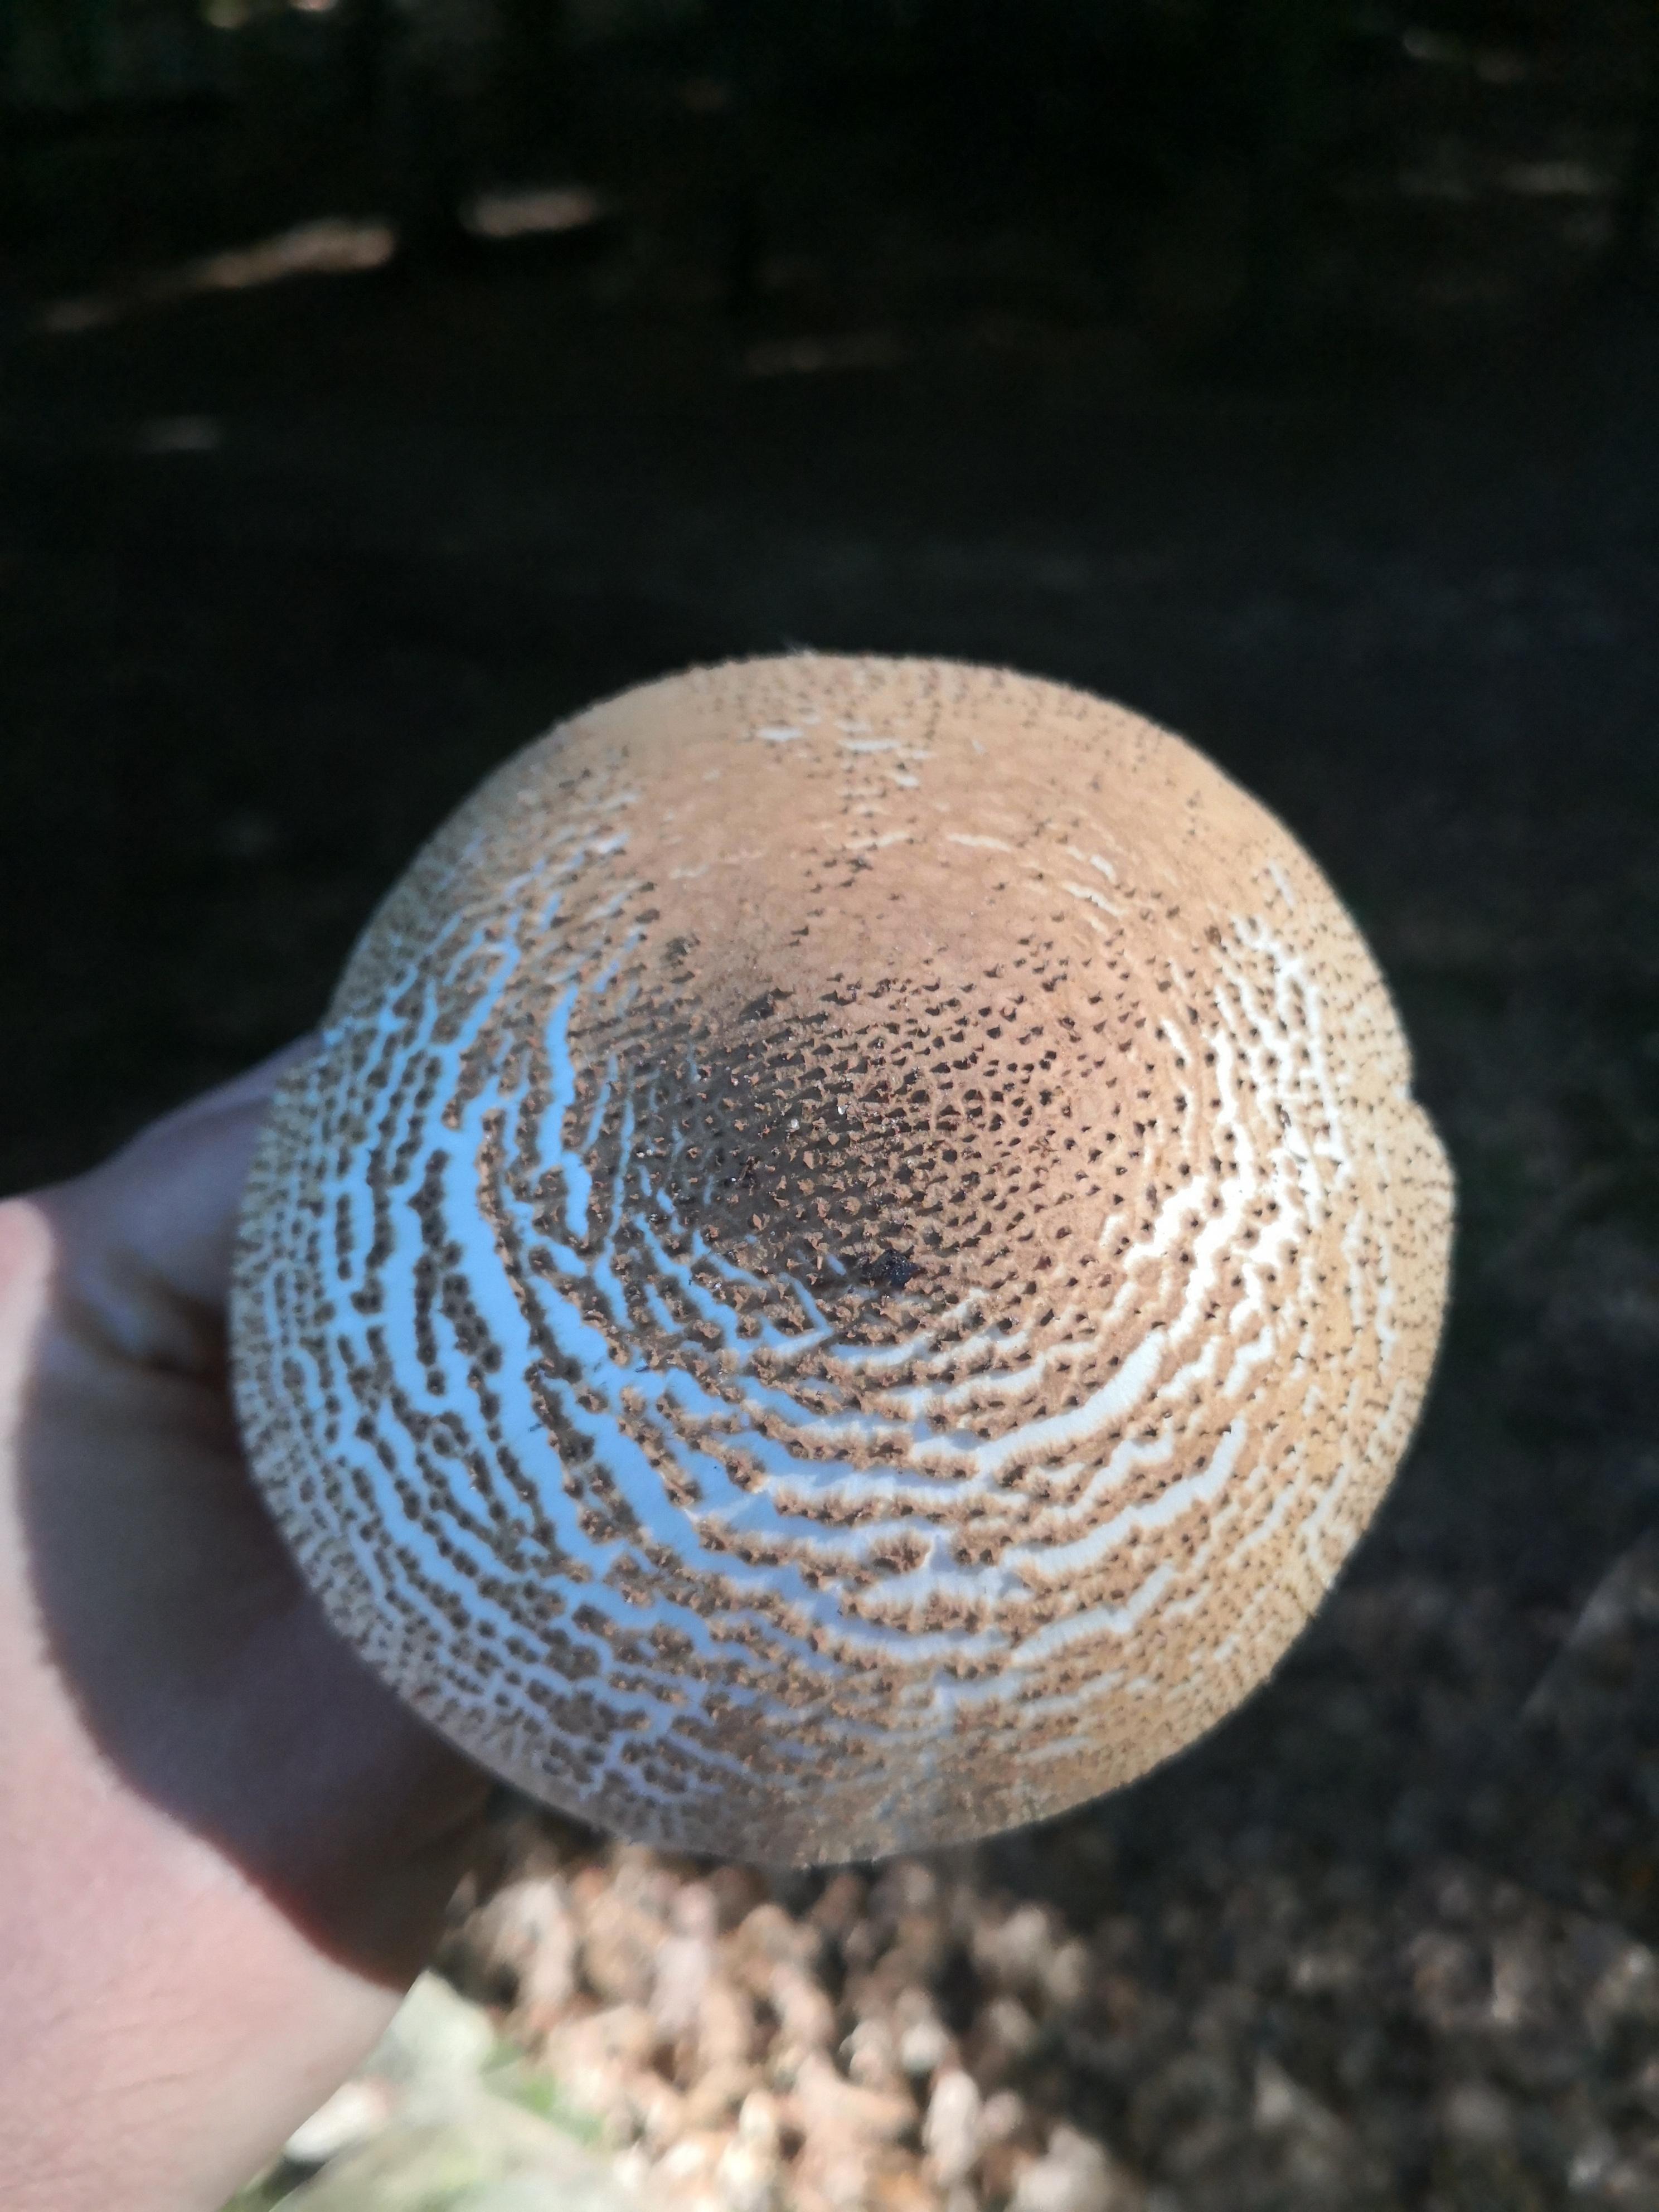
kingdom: Fungi
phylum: Basidiomycota
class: Agaricomycetes
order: Agaricales
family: Agaricaceae
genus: Echinoderma
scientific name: Echinoderma asperum
